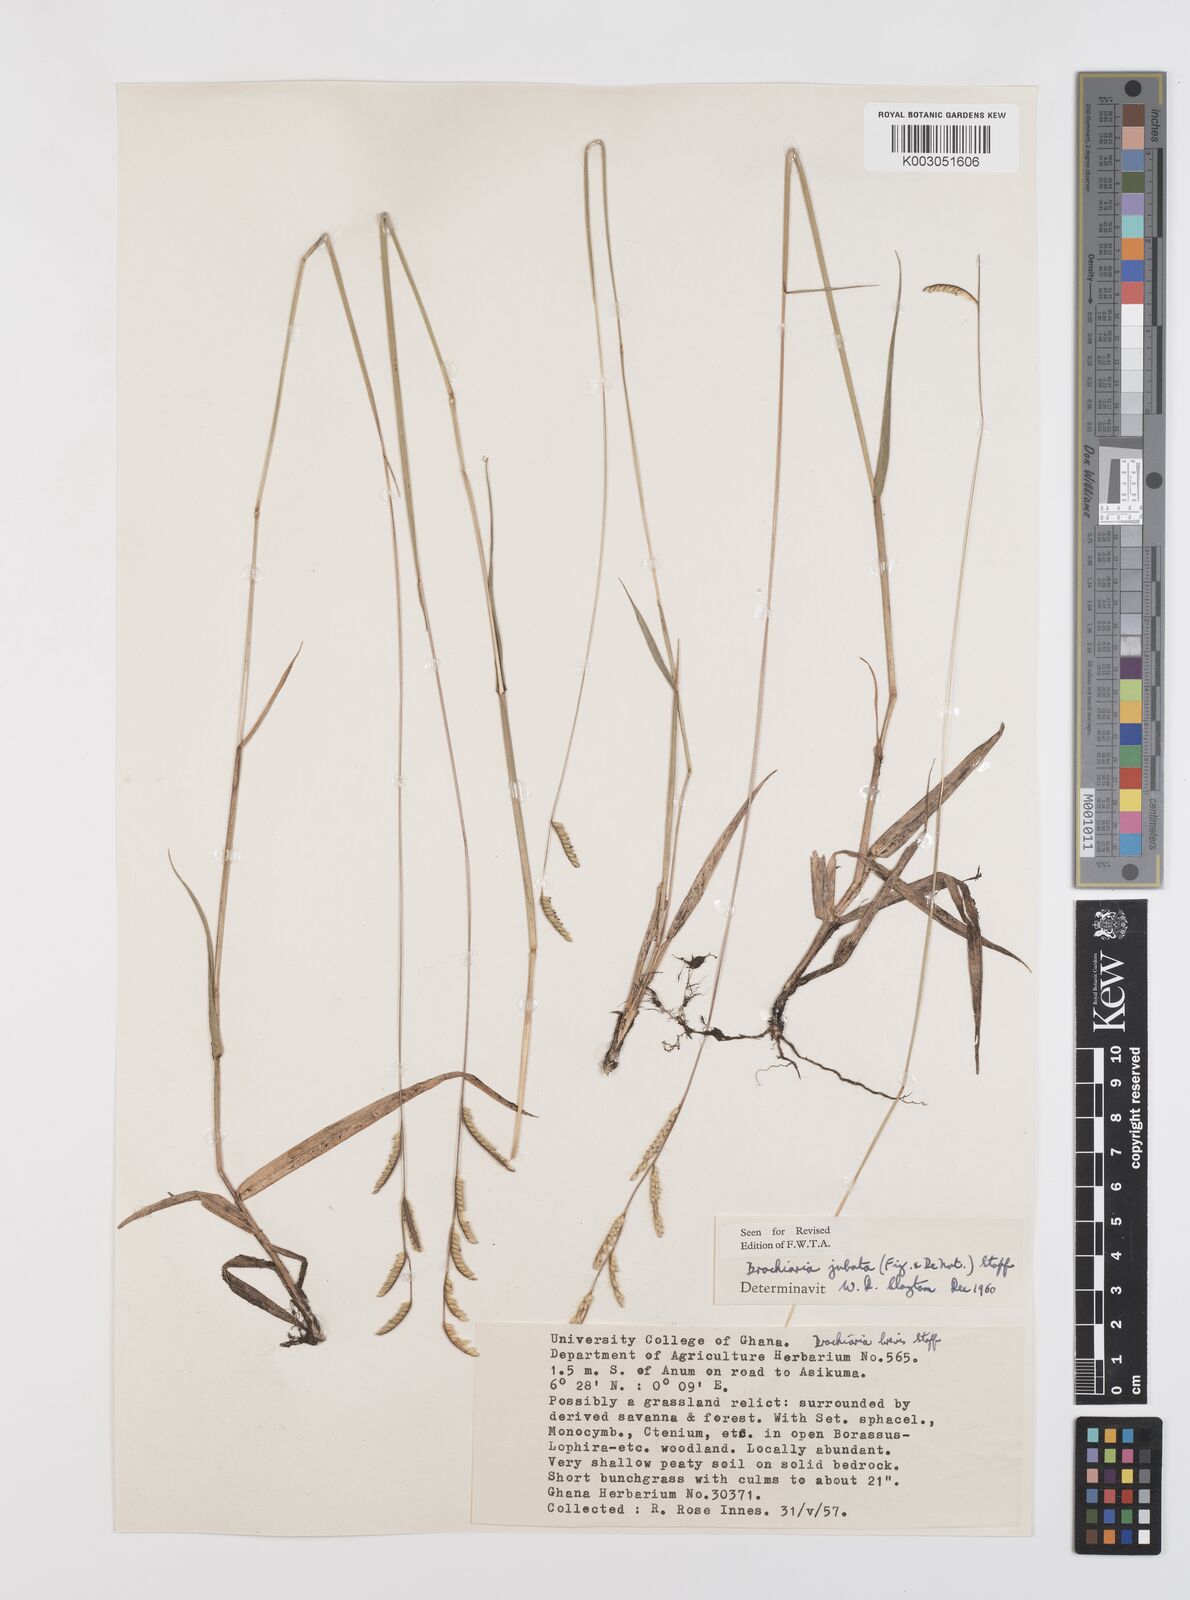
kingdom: Plantae
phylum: Tracheophyta
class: Liliopsida
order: Poales
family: Poaceae
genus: Urochloa
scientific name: Urochloa jubata
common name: Buffalograss
